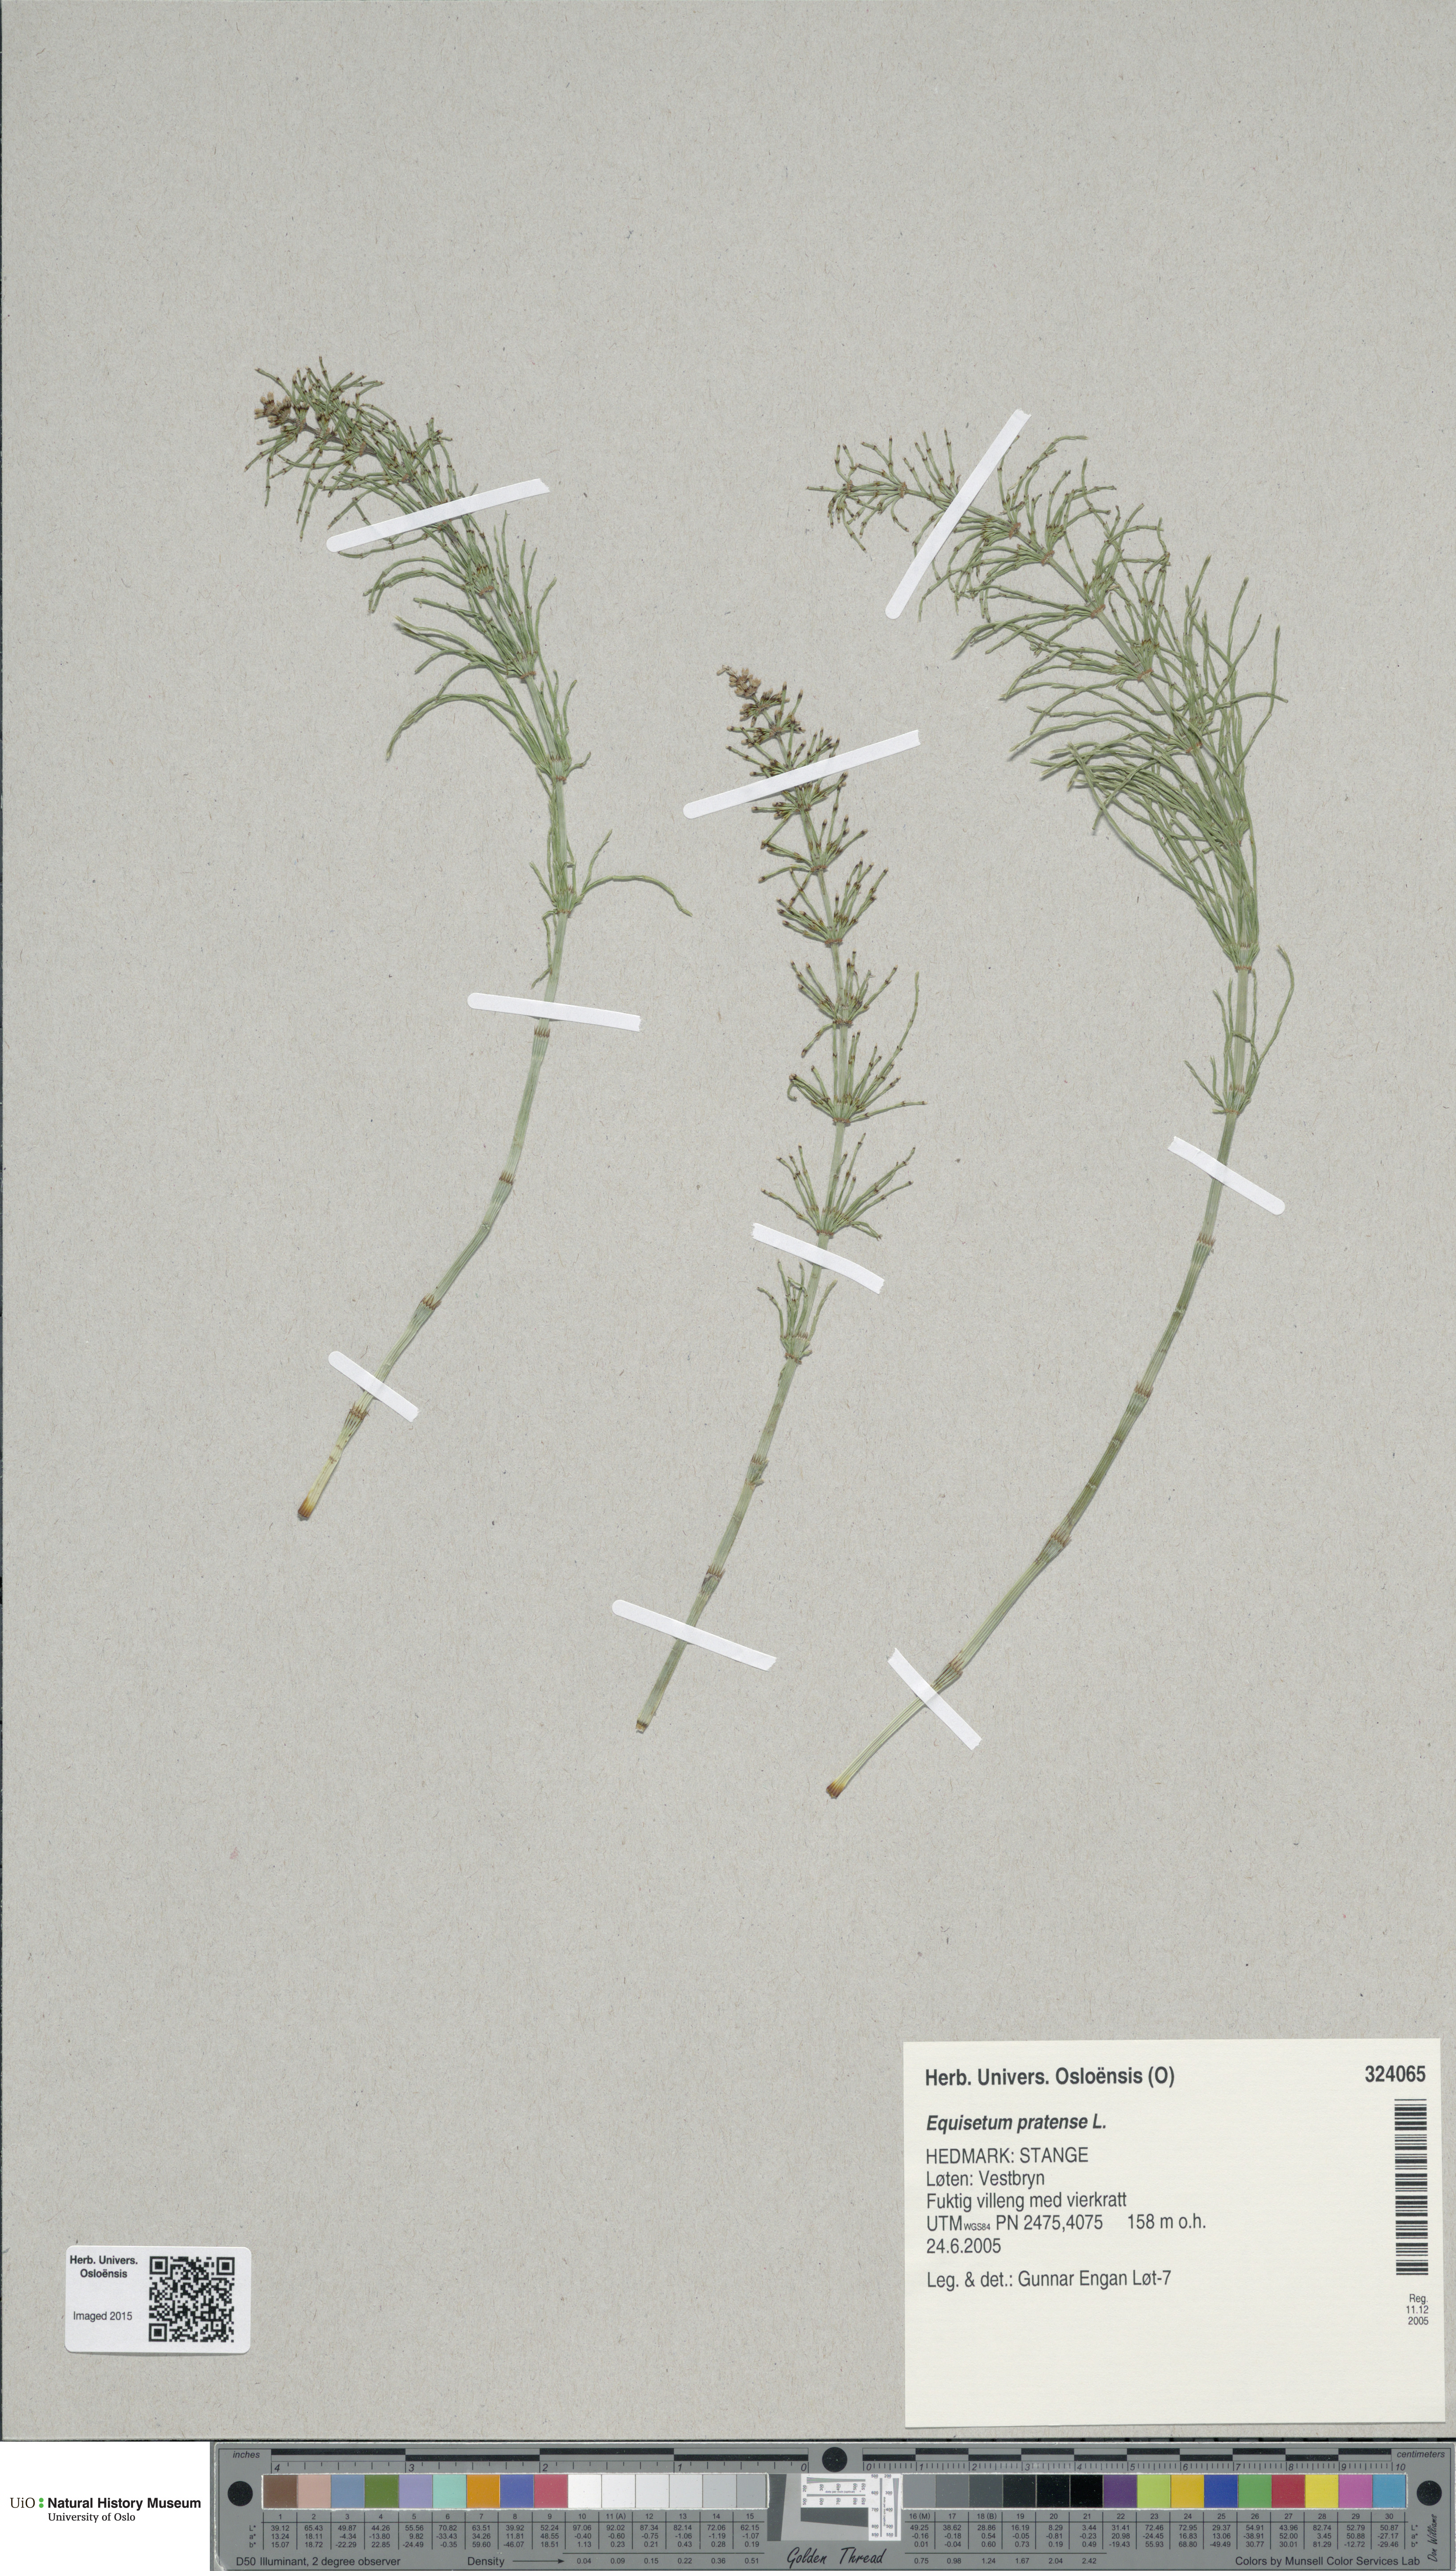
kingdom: Plantae
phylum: Tracheophyta
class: Polypodiopsida
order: Equisetales
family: Equisetaceae
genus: Equisetum
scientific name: Equisetum pratense
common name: Meadow horsetail
